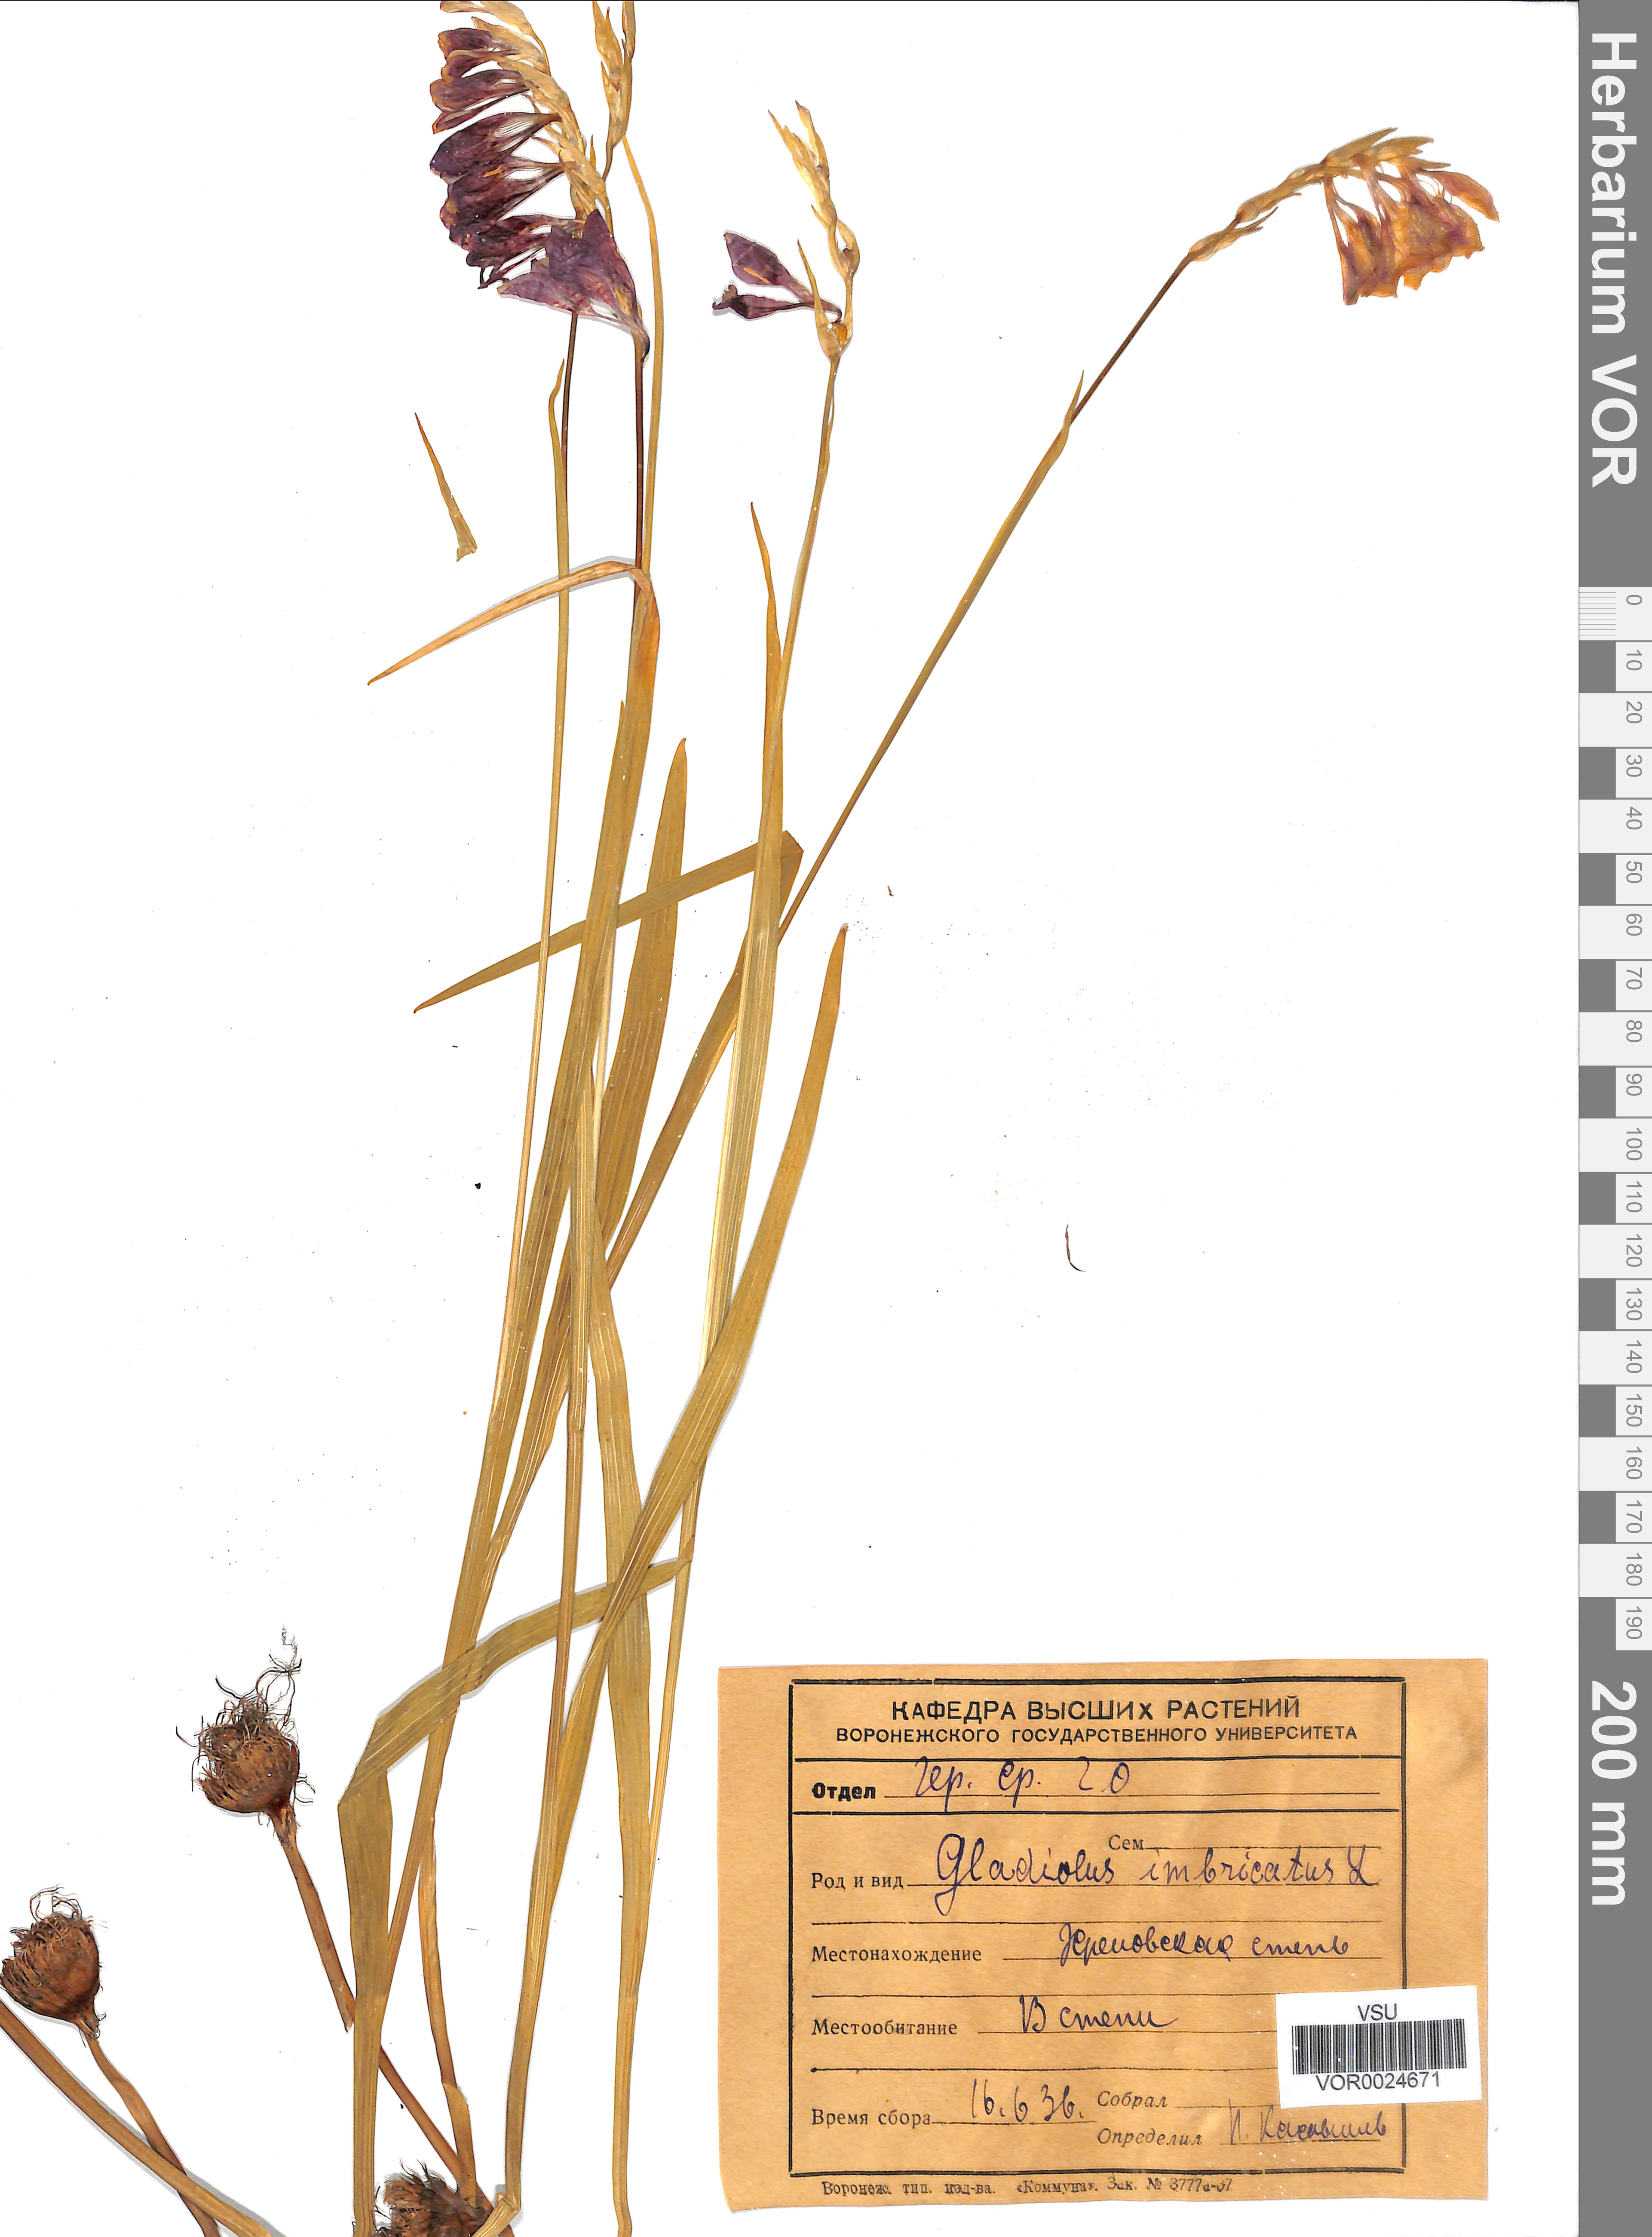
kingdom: Plantae
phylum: Tracheophyta
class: Liliopsida
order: Asparagales
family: Iridaceae
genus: Gladiolus
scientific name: Gladiolus tenuis
